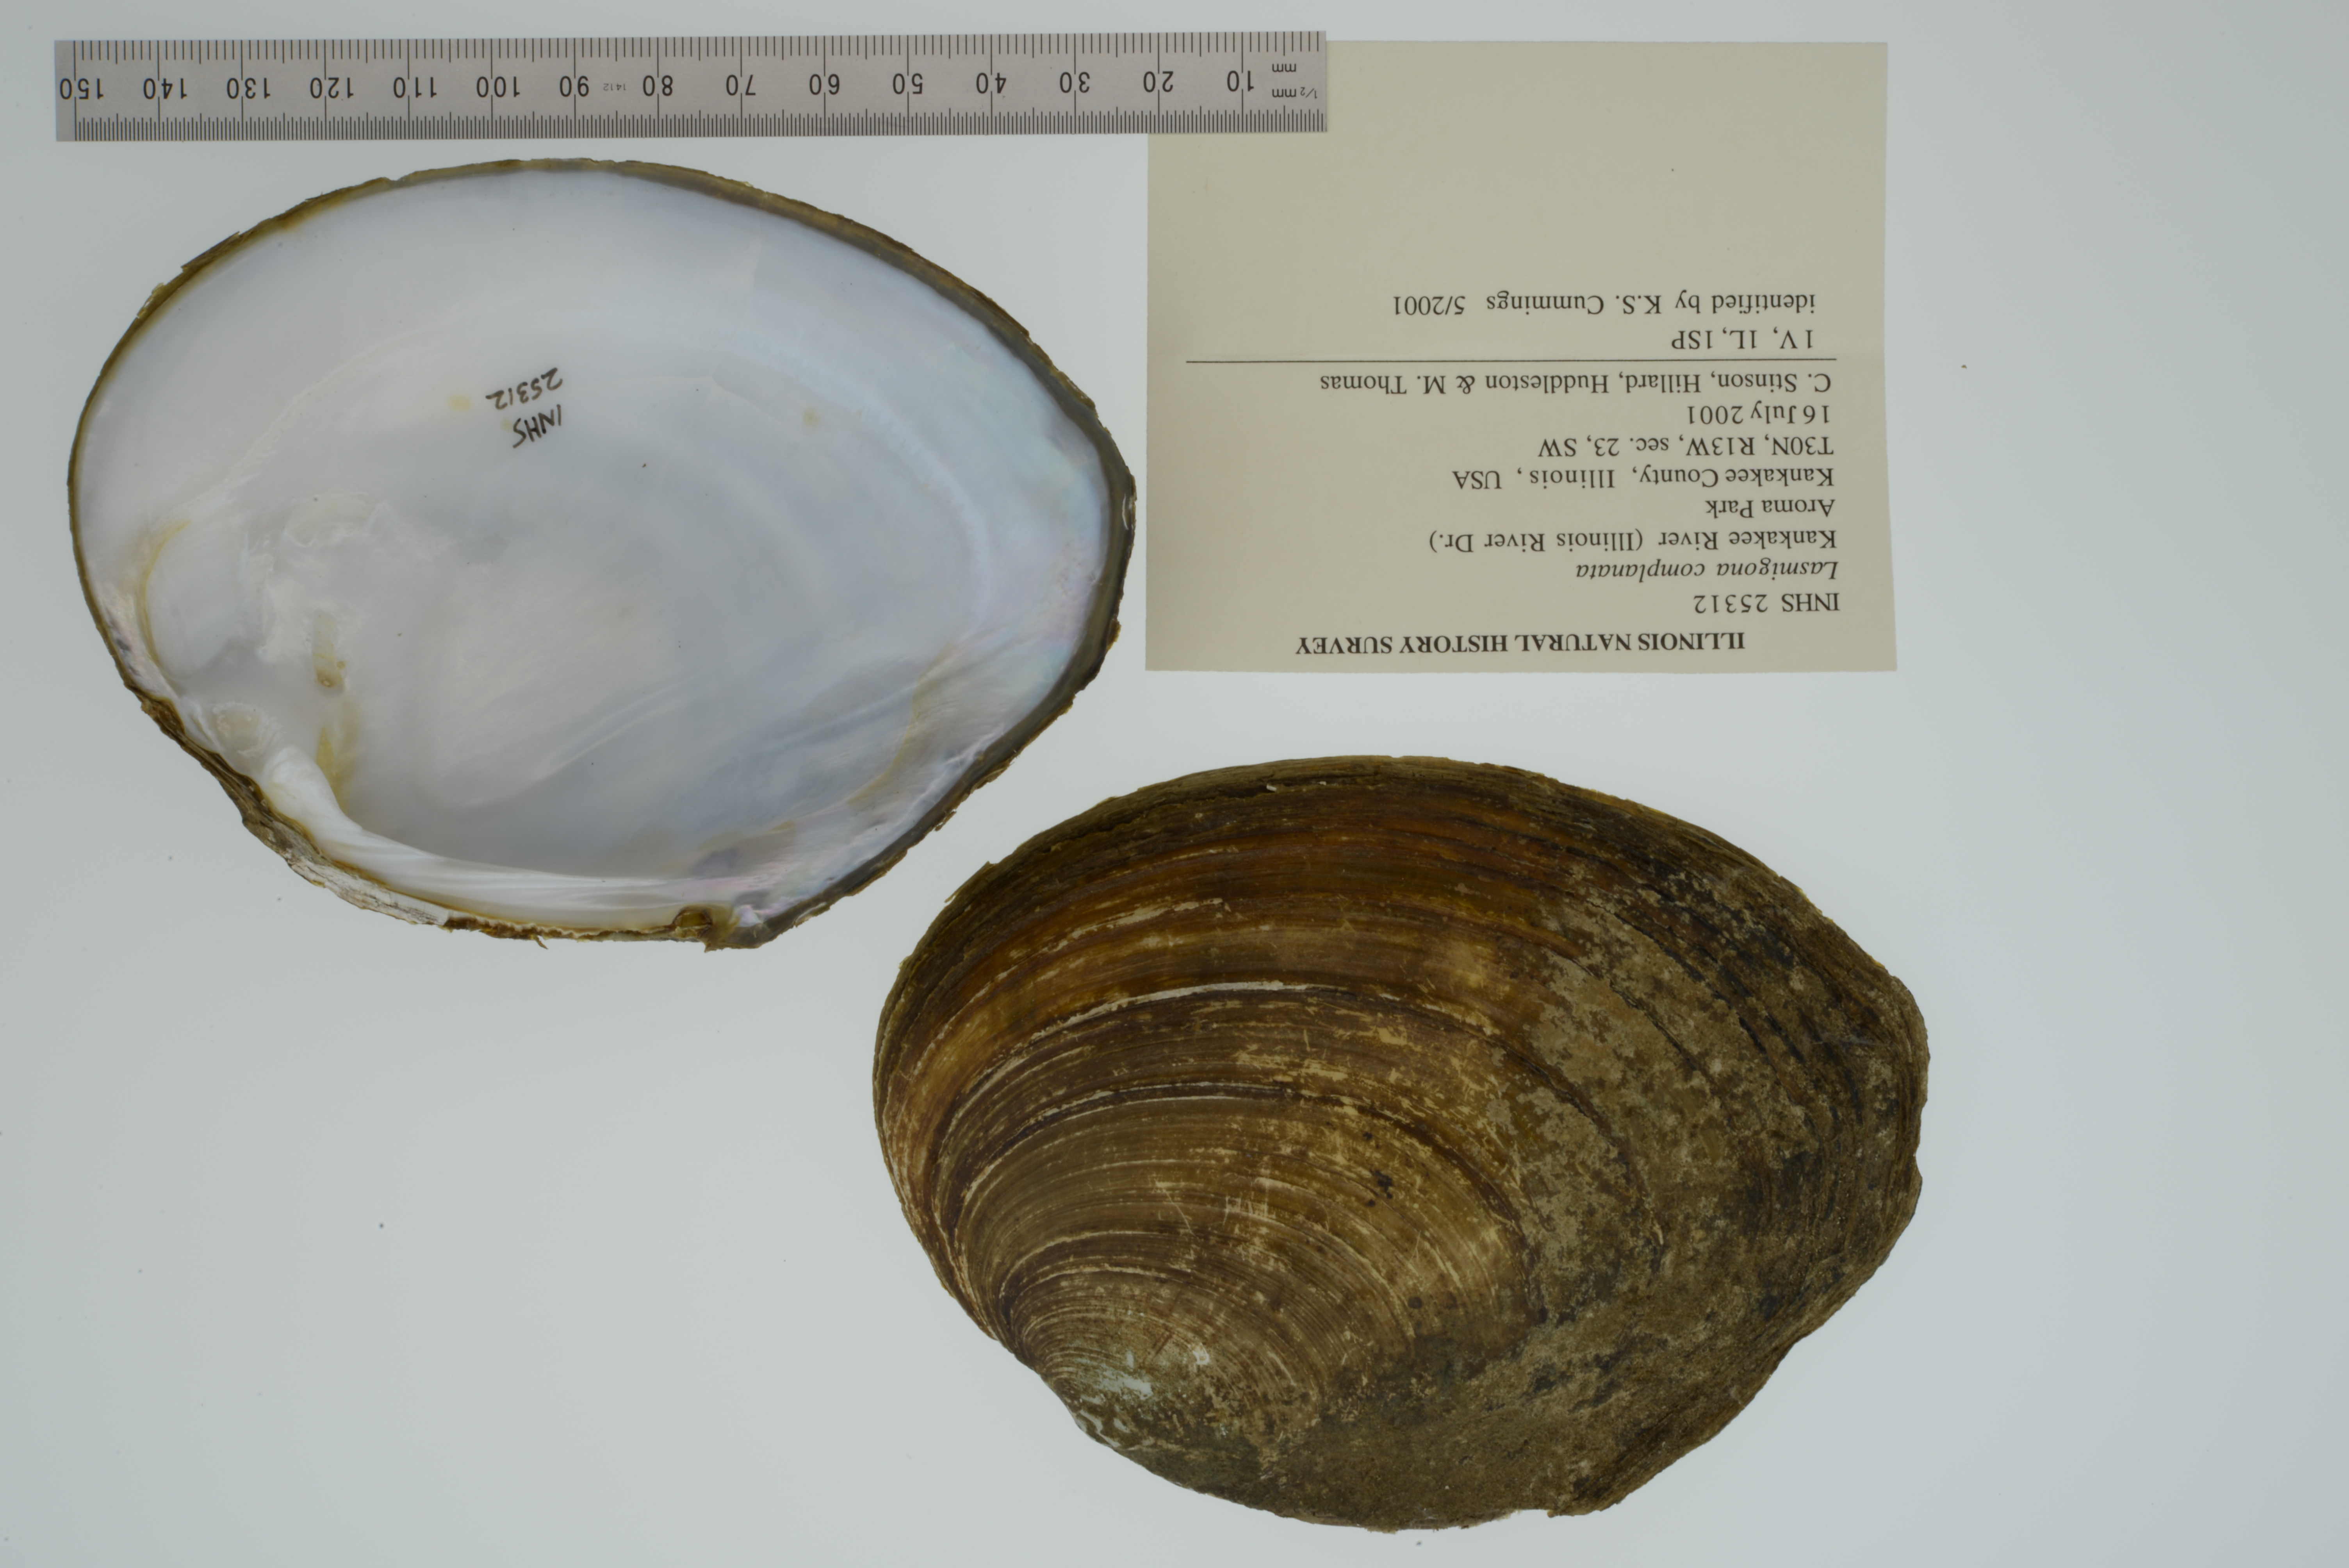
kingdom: Animalia
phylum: Mollusca
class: Bivalvia
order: Unionida
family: Unionidae
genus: Lasmigona
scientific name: Lasmigona complanata
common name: White heelsplitter
